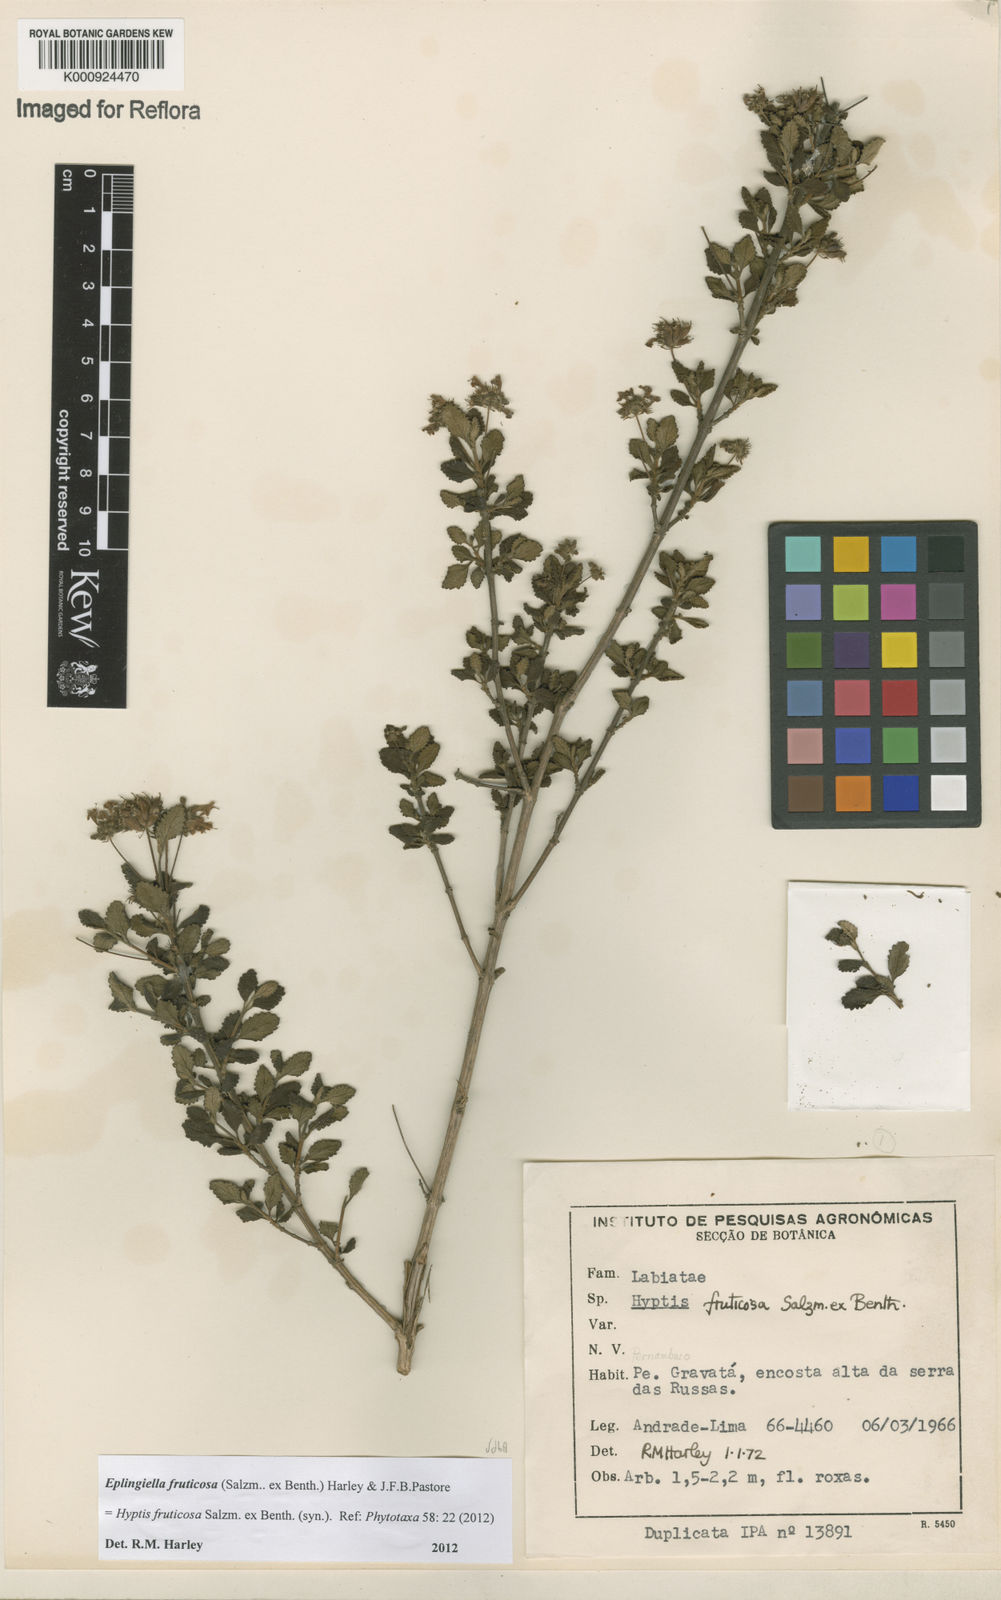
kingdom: Plantae
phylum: Tracheophyta
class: Magnoliopsida
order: Lamiales
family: Lamiaceae
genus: Eplingiella
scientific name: Eplingiella fruticosa
